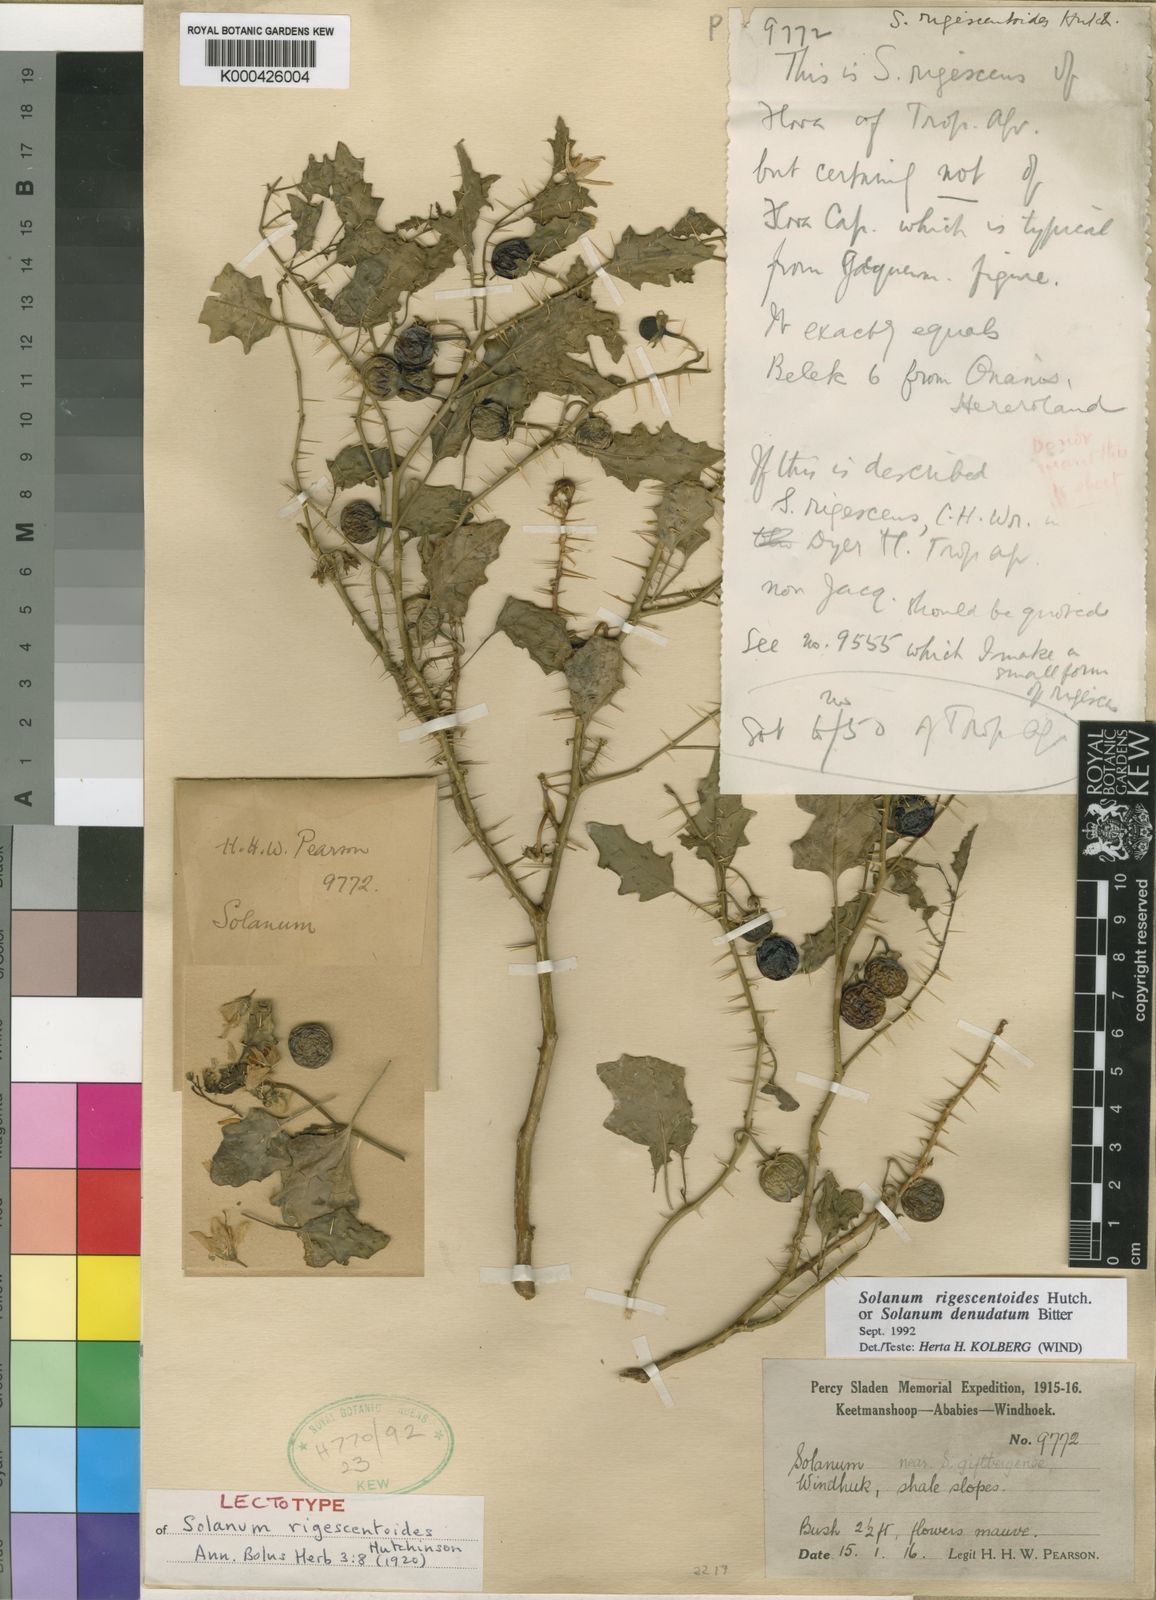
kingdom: Plantae
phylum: Tracheophyta
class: Magnoliopsida
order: Solanales
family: Solanaceae
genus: Solanum
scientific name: Solanum humile
